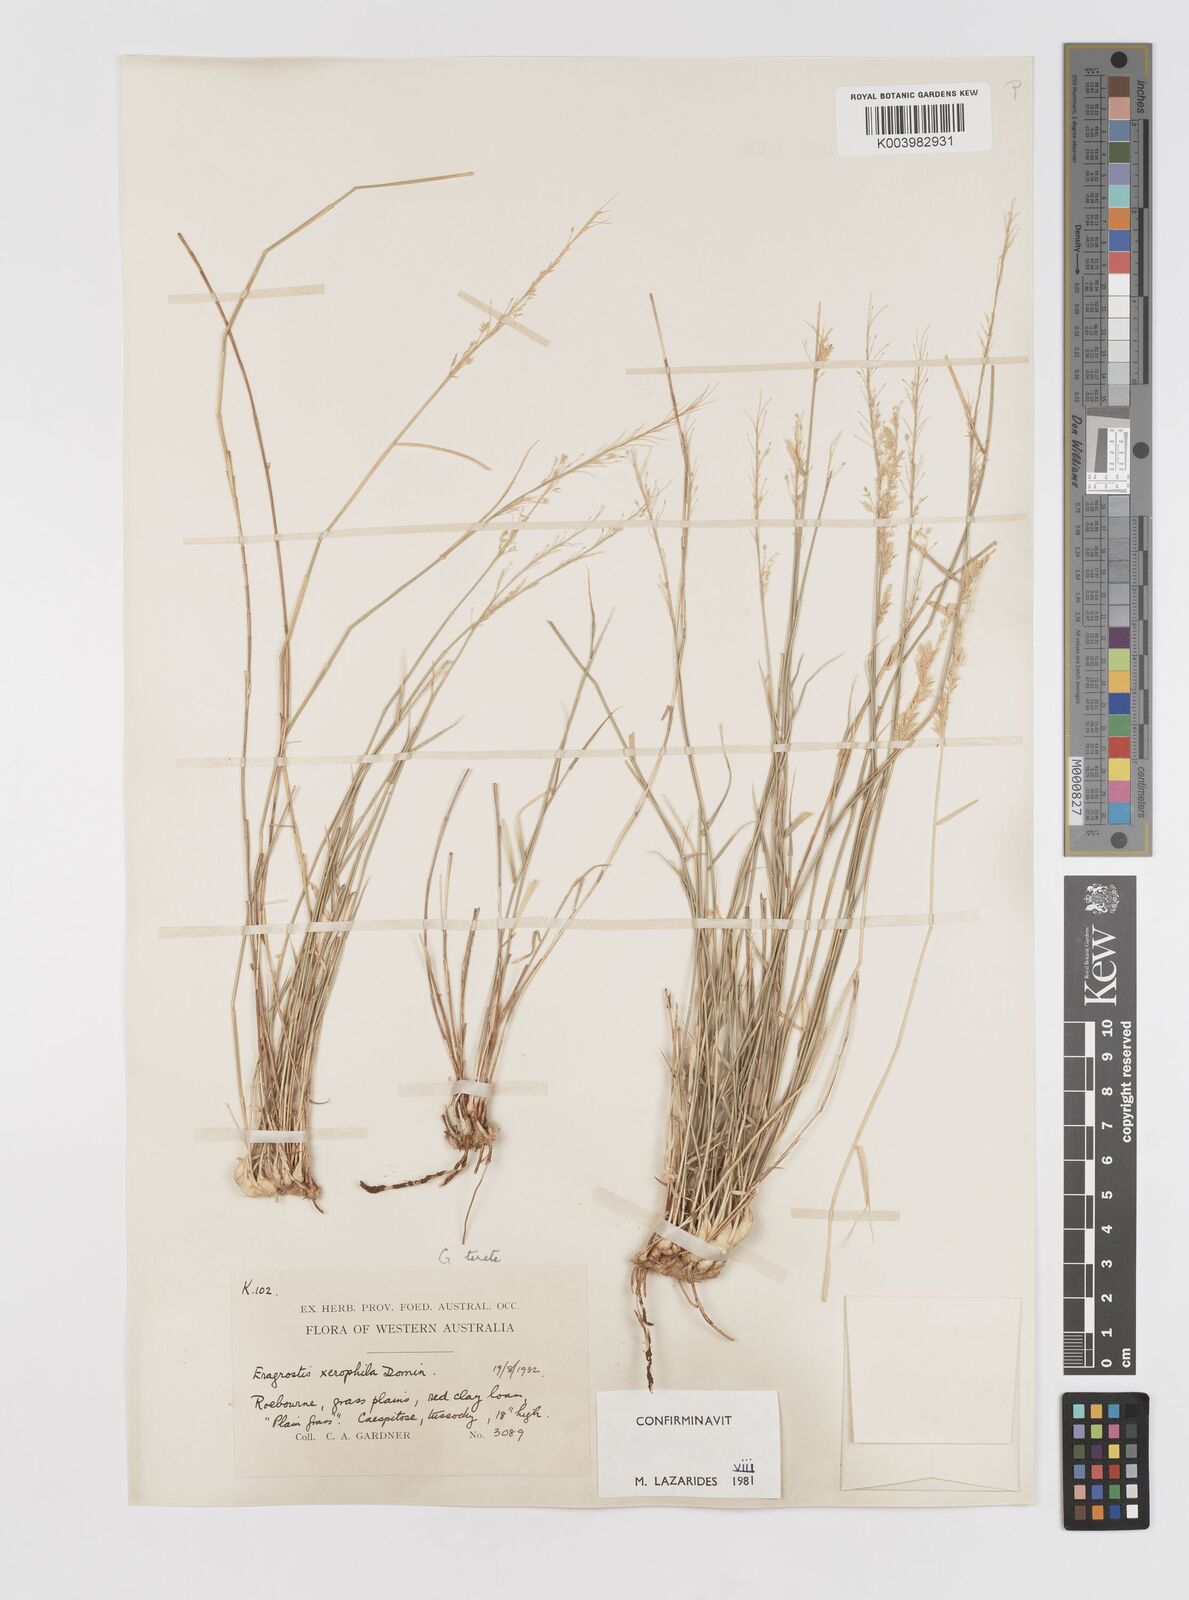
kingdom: Plantae
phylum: Tracheophyta
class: Liliopsida
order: Poales
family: Poaceae
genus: Eragrostis
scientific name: Eragrostis xerophila
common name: Wire wandarrie grass
